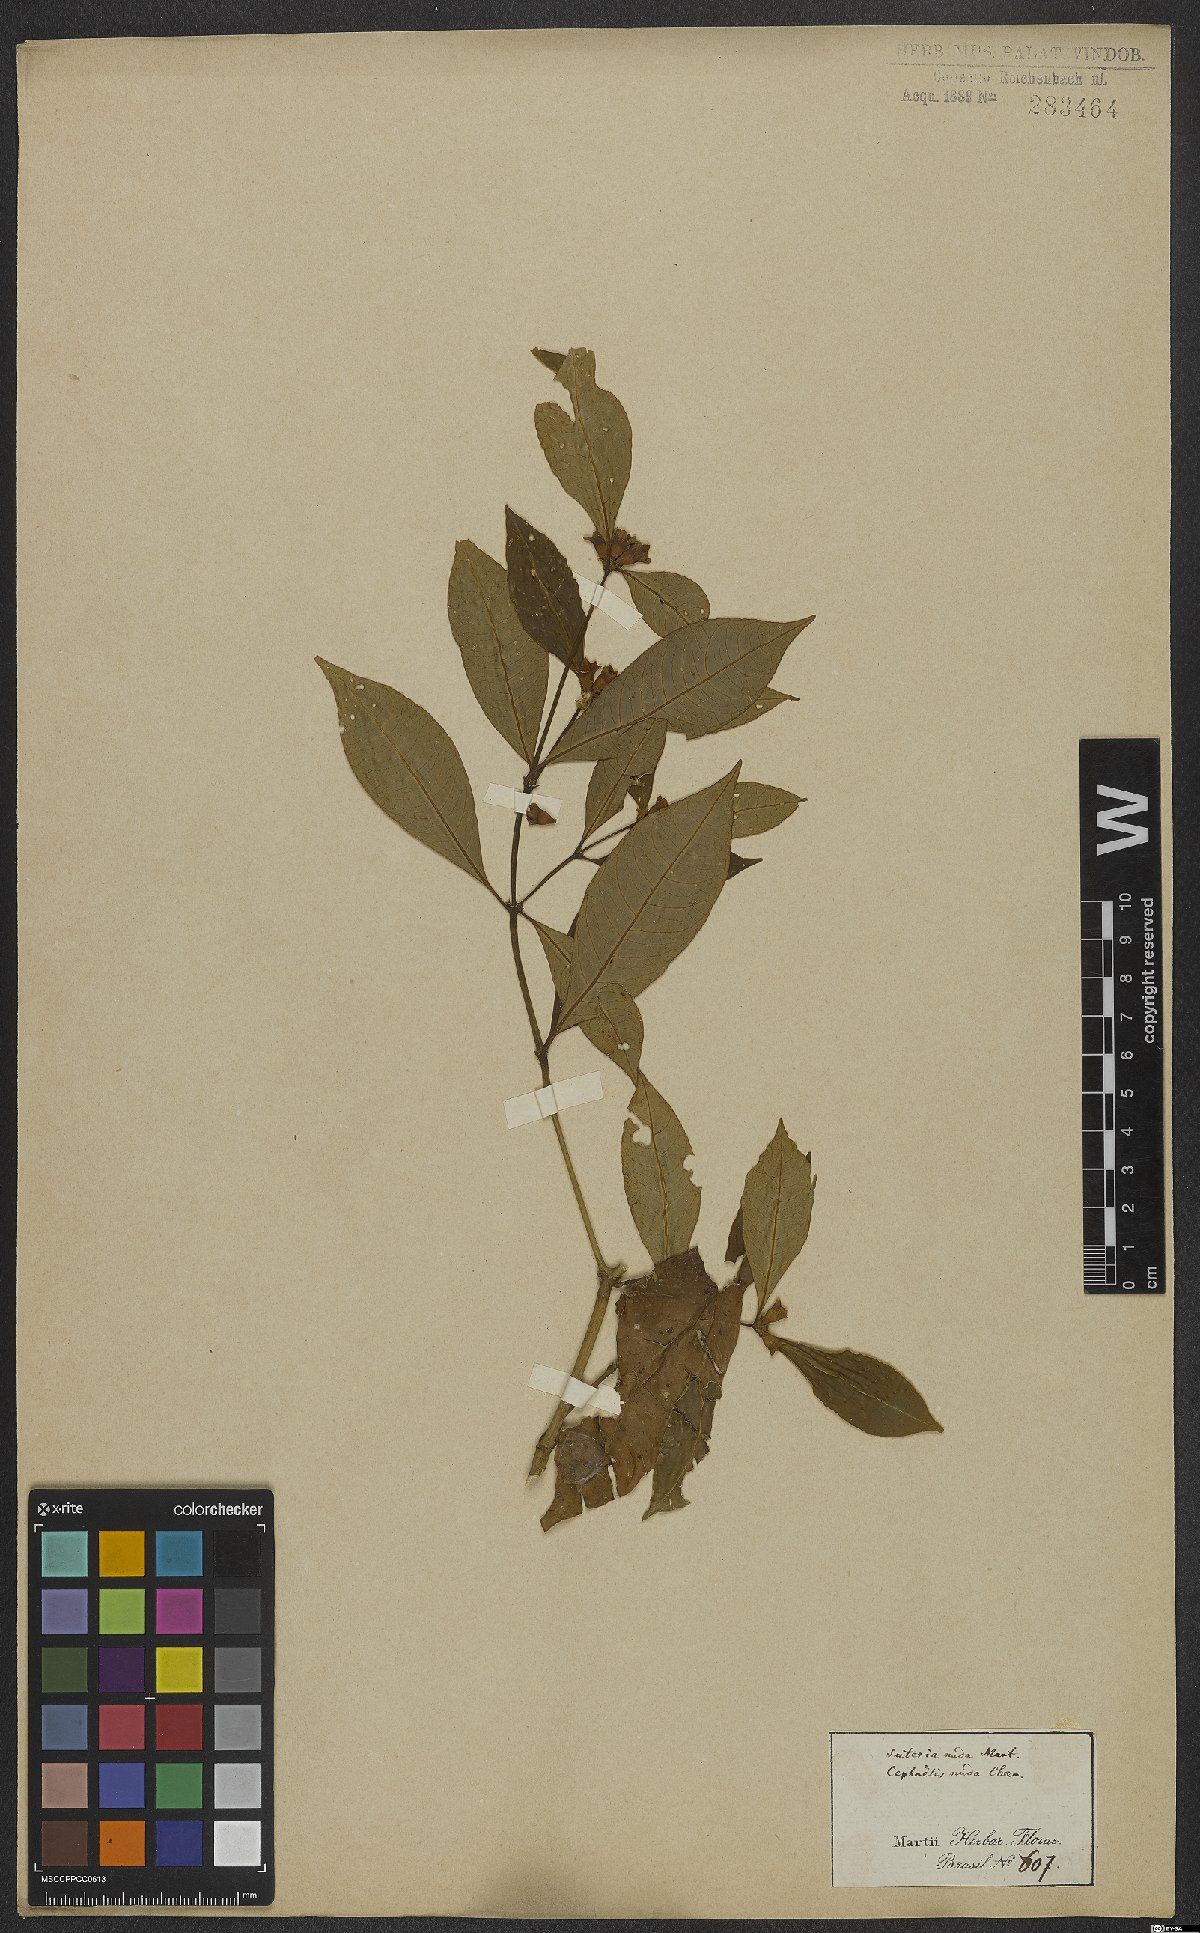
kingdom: Plantae
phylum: Tracheophyta
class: Magnoliopsida
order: Gentianales
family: Rubiaceae
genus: Psychotria
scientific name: Psychotria nuda
